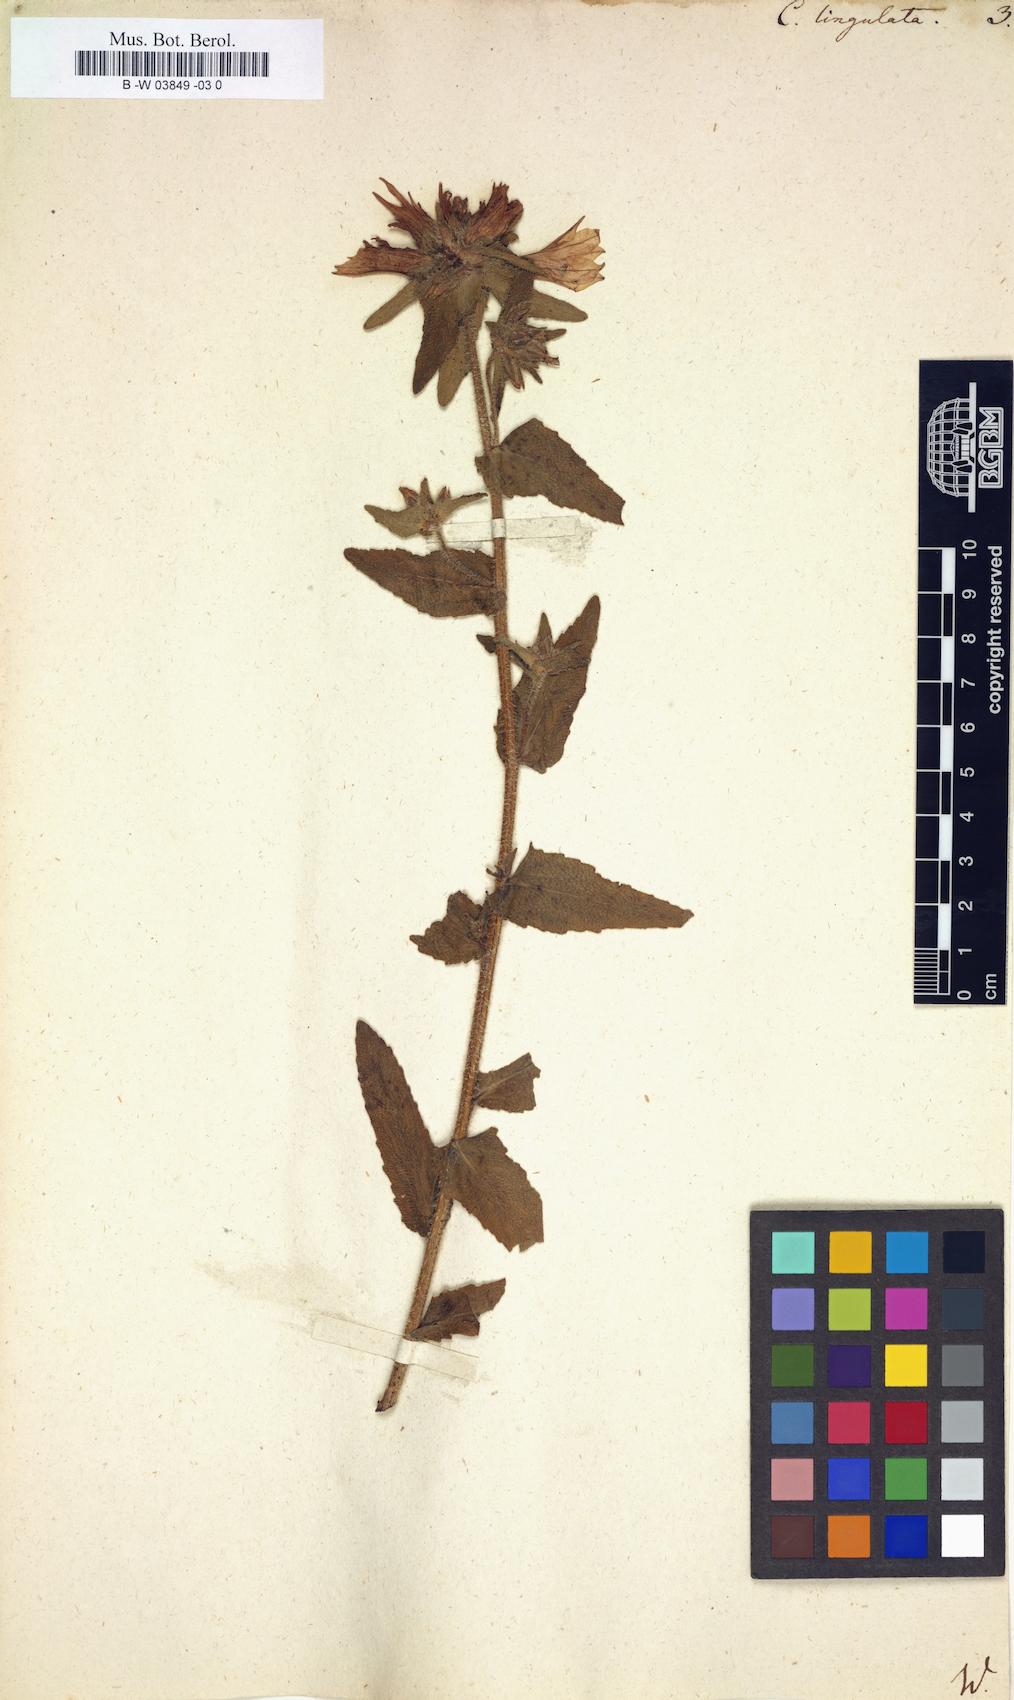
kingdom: Plantae
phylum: Tracheophyta
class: Magnoliopsida
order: Asterales
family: Campanulaceae
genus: Campanula
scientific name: Campanula lingulata
